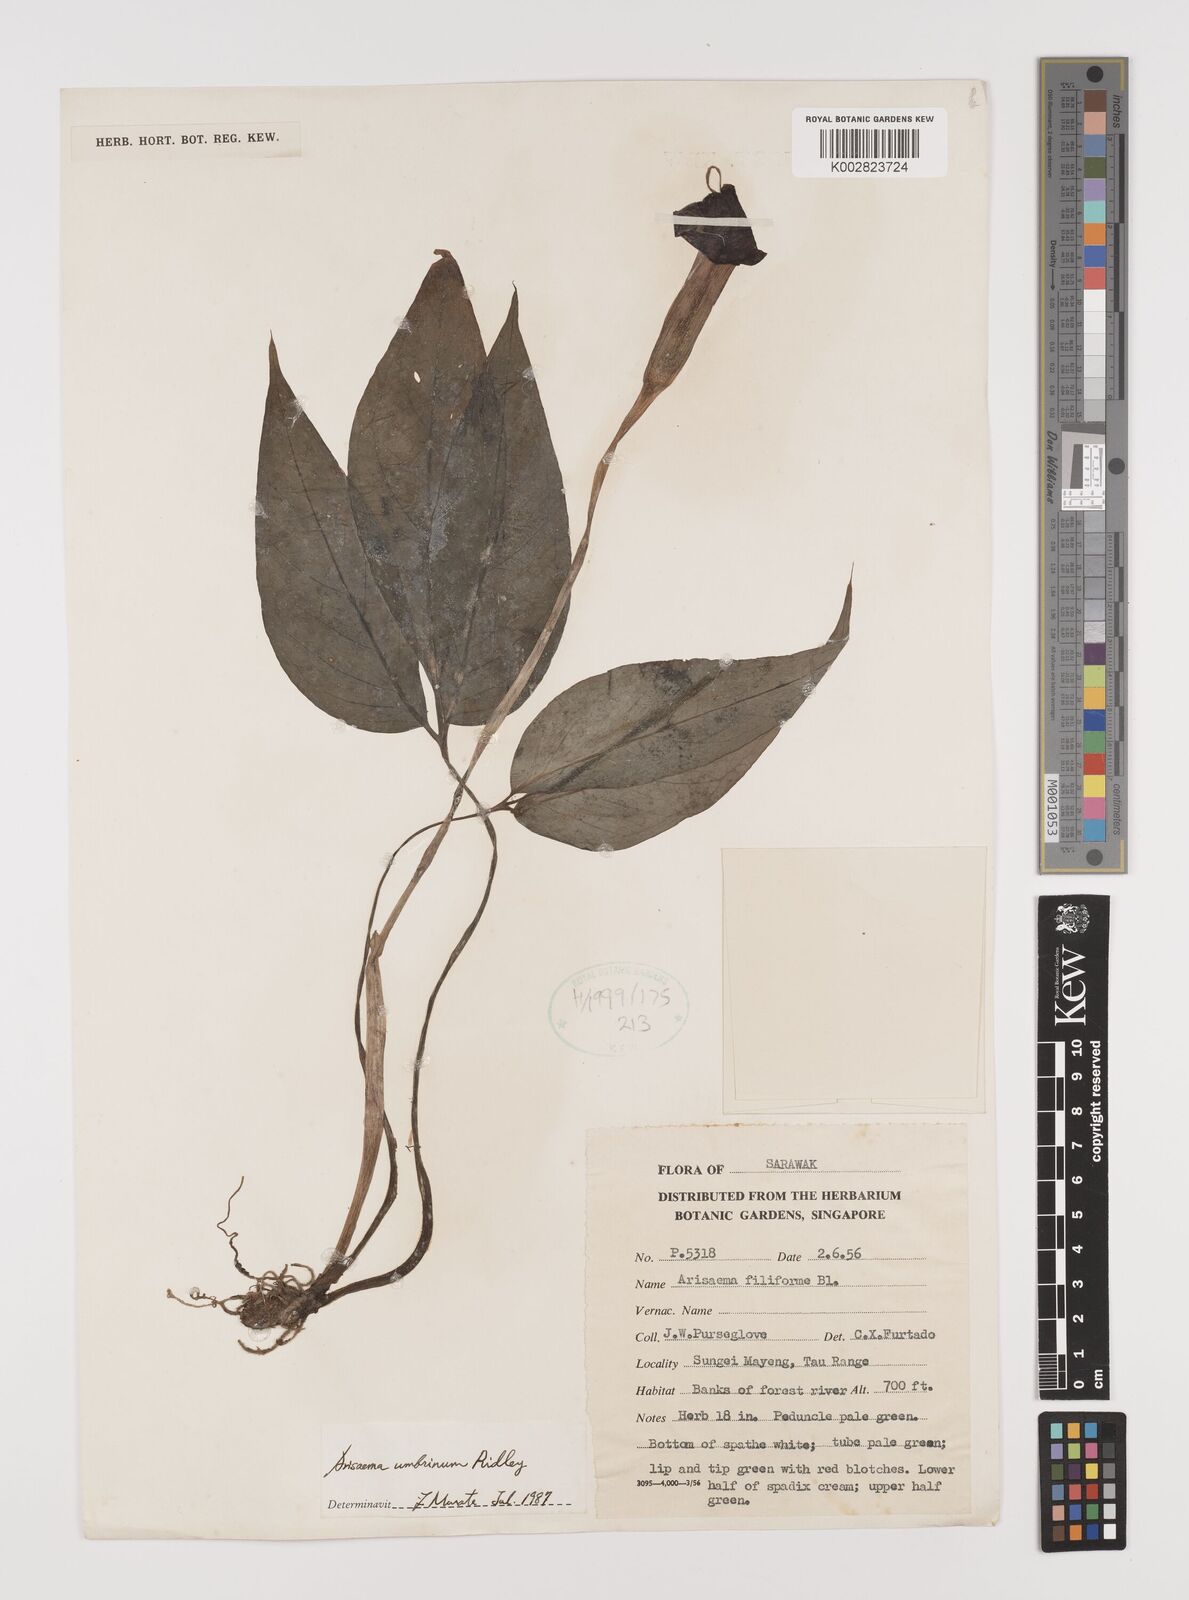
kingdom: Plantae
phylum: Tracheophyta
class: Liliopsida
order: Alismatales
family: Araceae
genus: Arisaema
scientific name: Arisaema umbrinum
